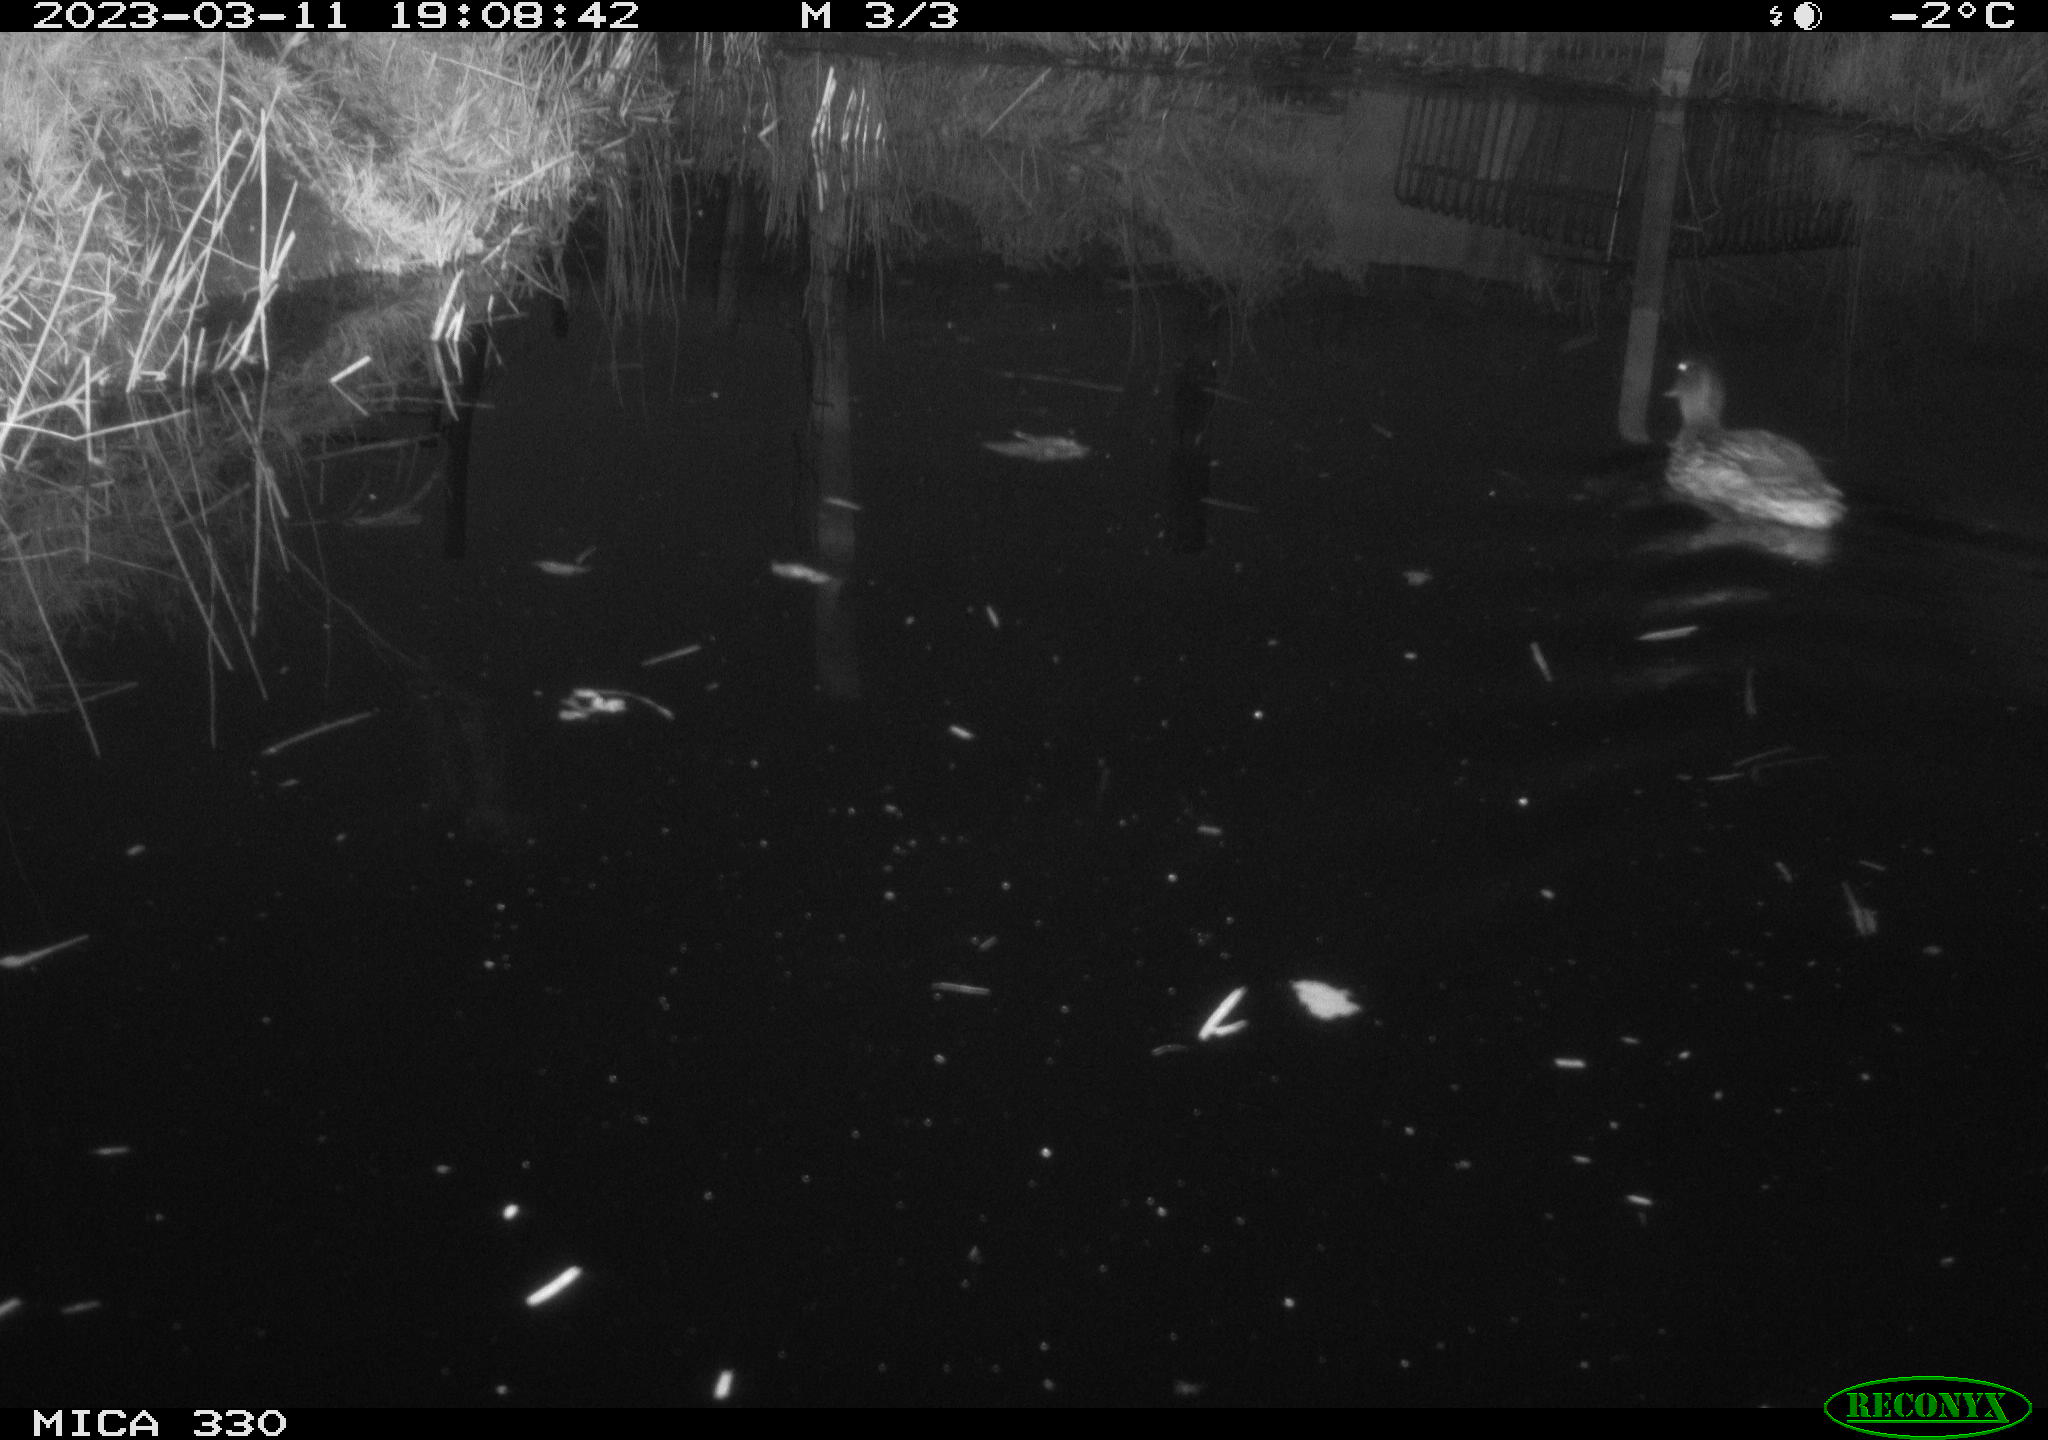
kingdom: Animalia
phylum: Chordata
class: Aves
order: Anseriformes
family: Anatidae
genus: Anas
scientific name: Anas
